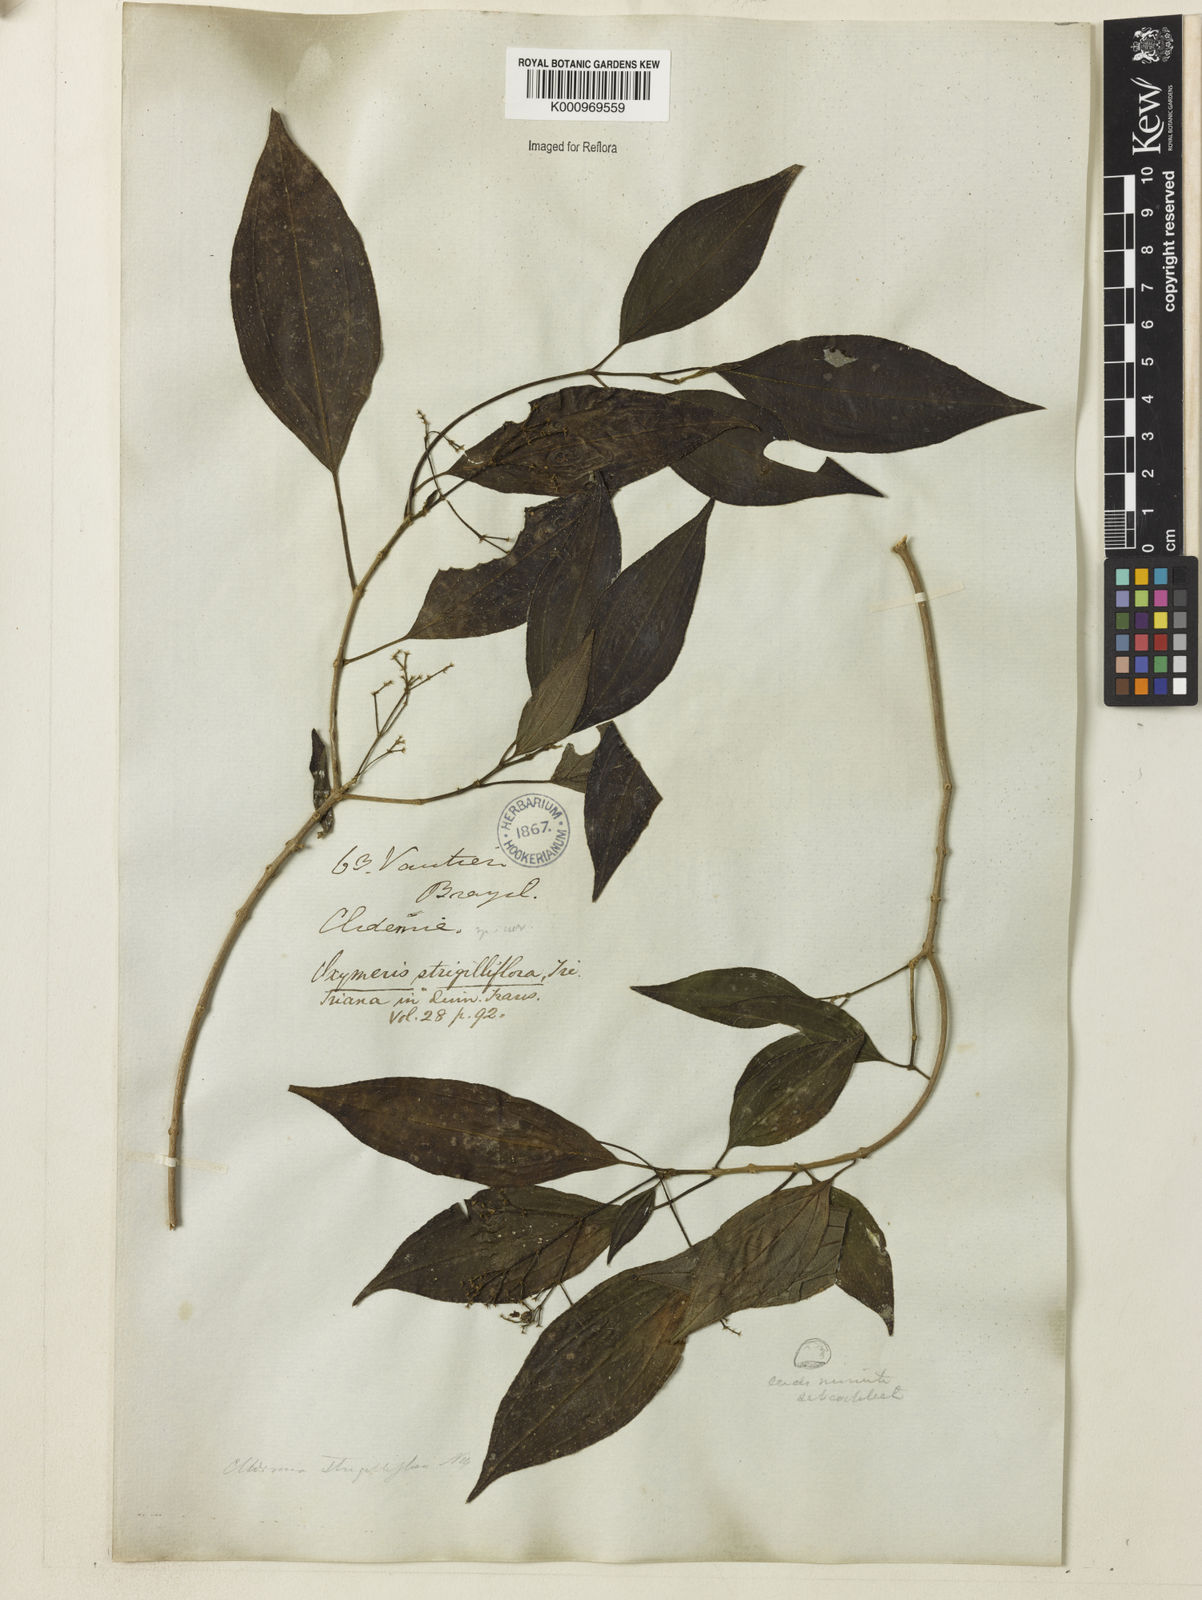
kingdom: Plantae
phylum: Tracheophyta
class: Magnoliopsida
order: Myrtales
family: Melastomataceae
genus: Miconia
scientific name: Miconia strigilliflora
